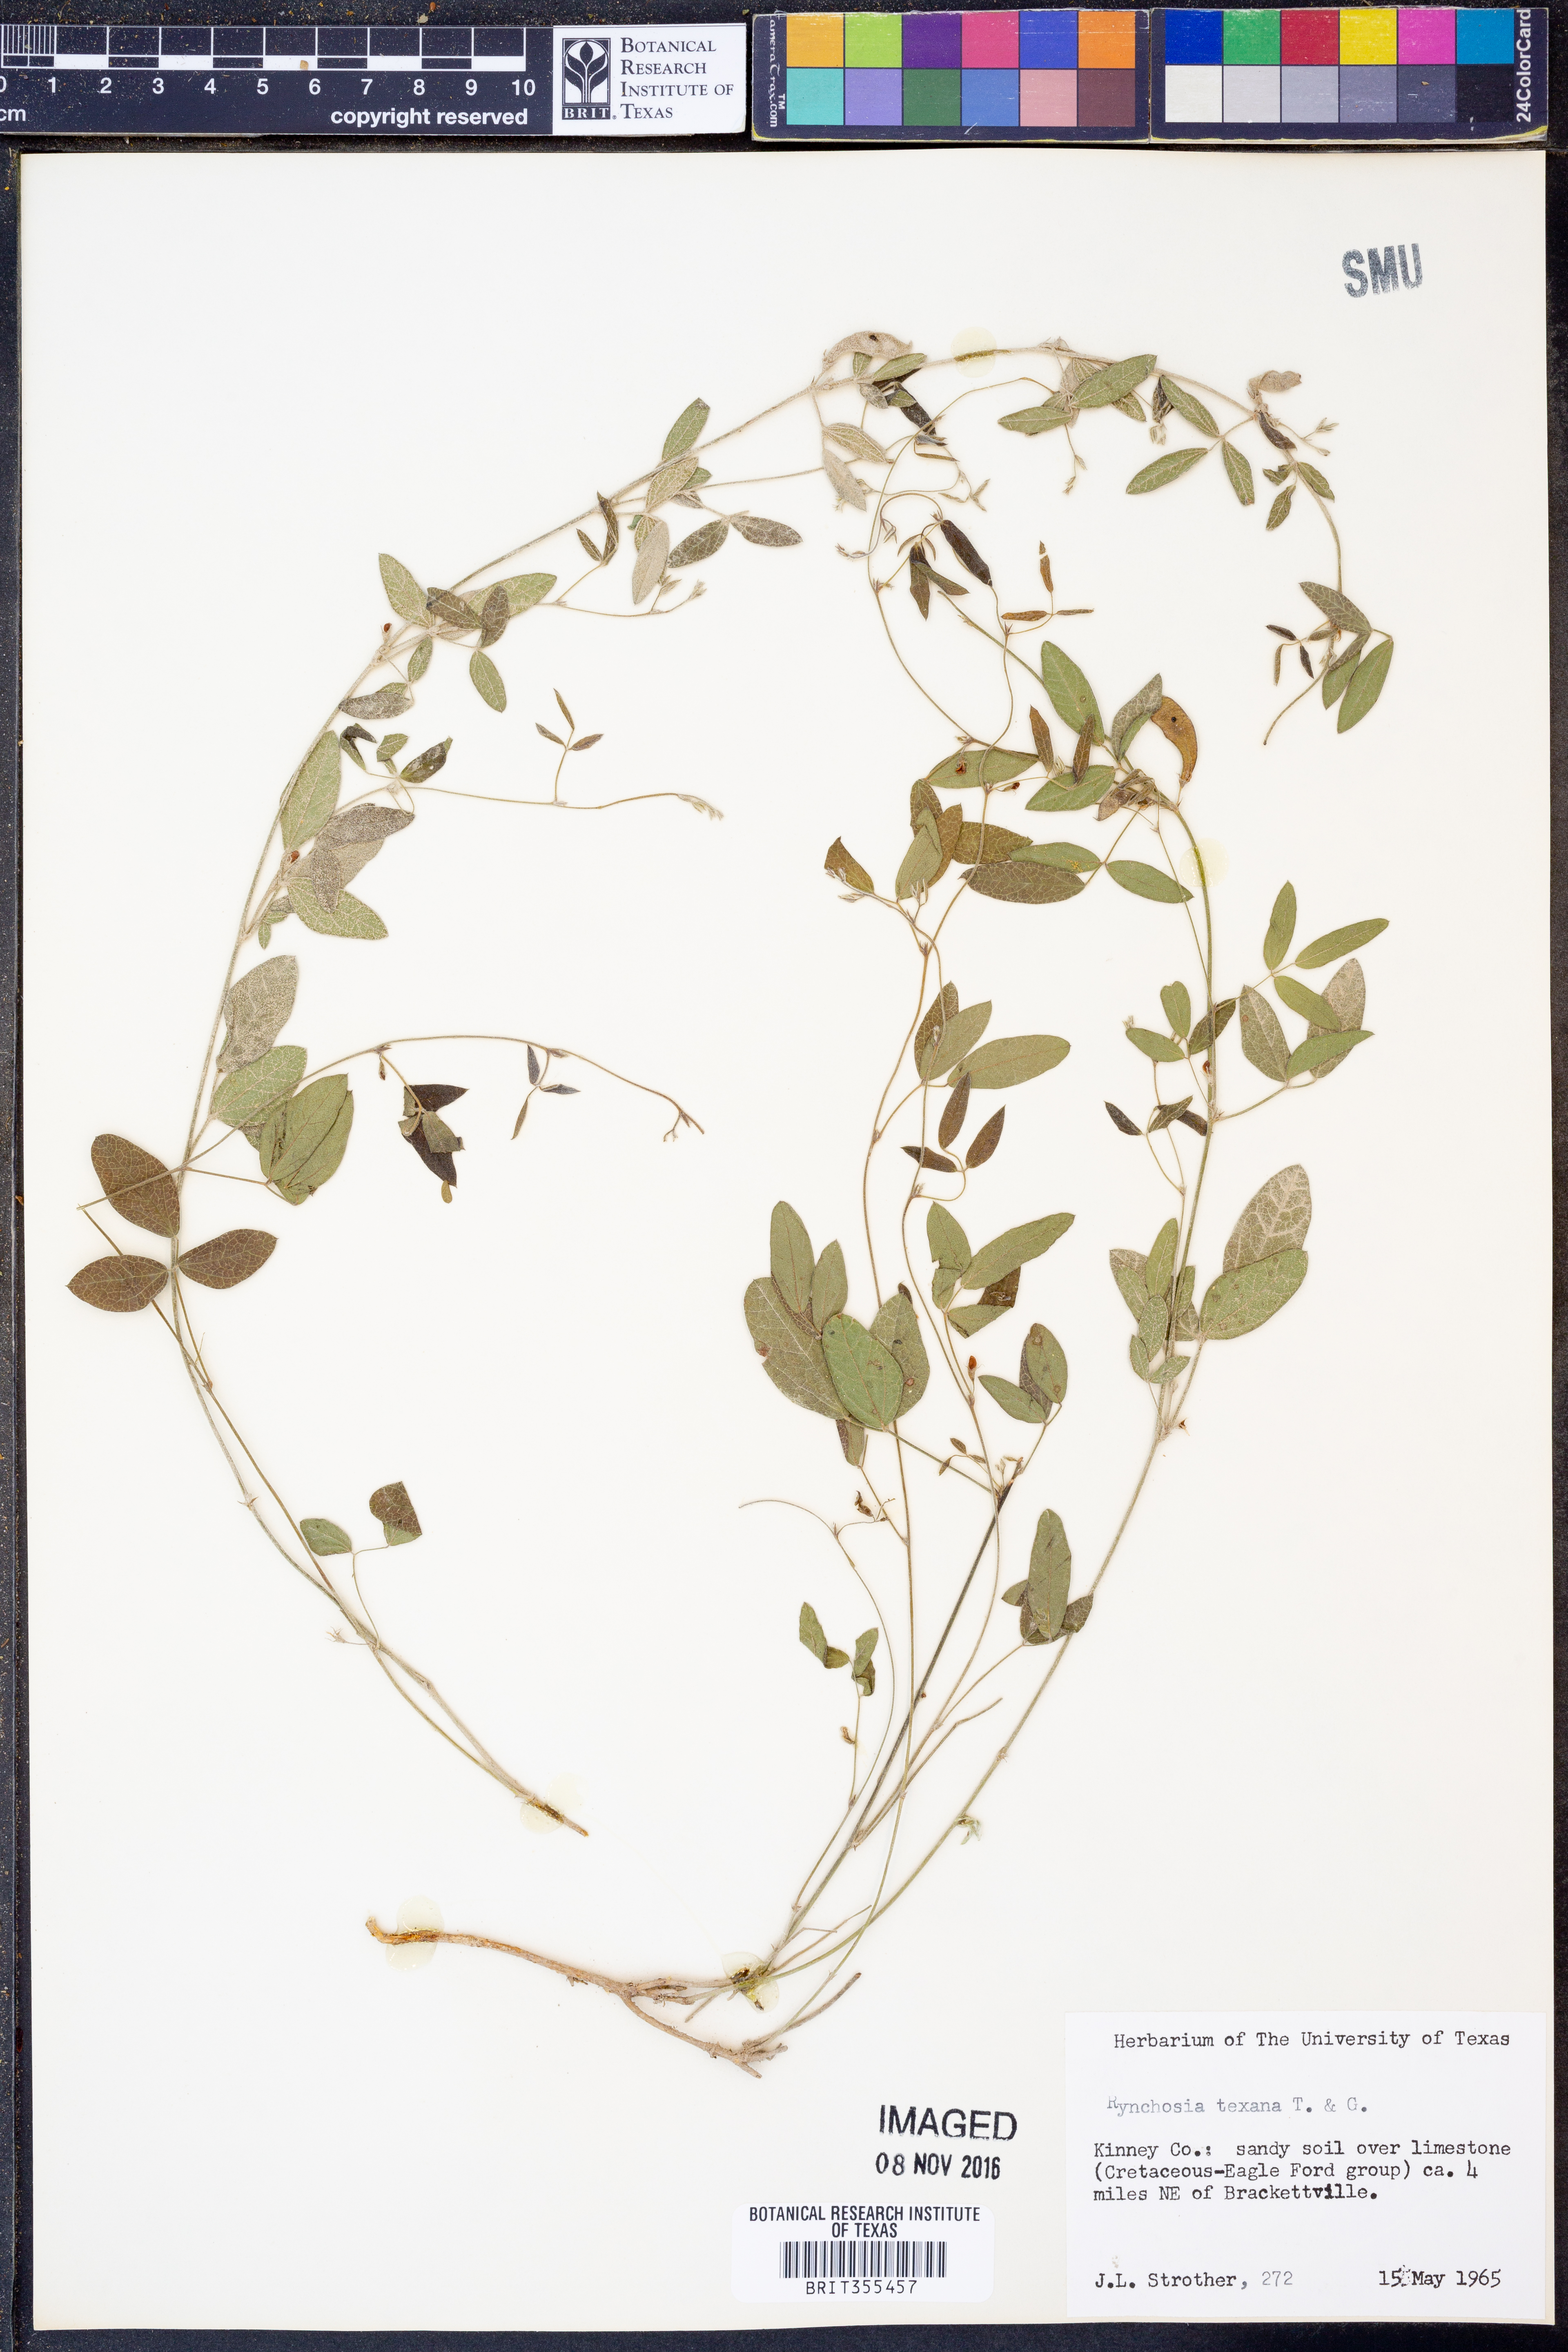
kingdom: Plantae
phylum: Tracheophyta
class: Magnoliopsida
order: Fabales
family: Fabaceae
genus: Rhynchosia
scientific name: Rhynchosia senna
